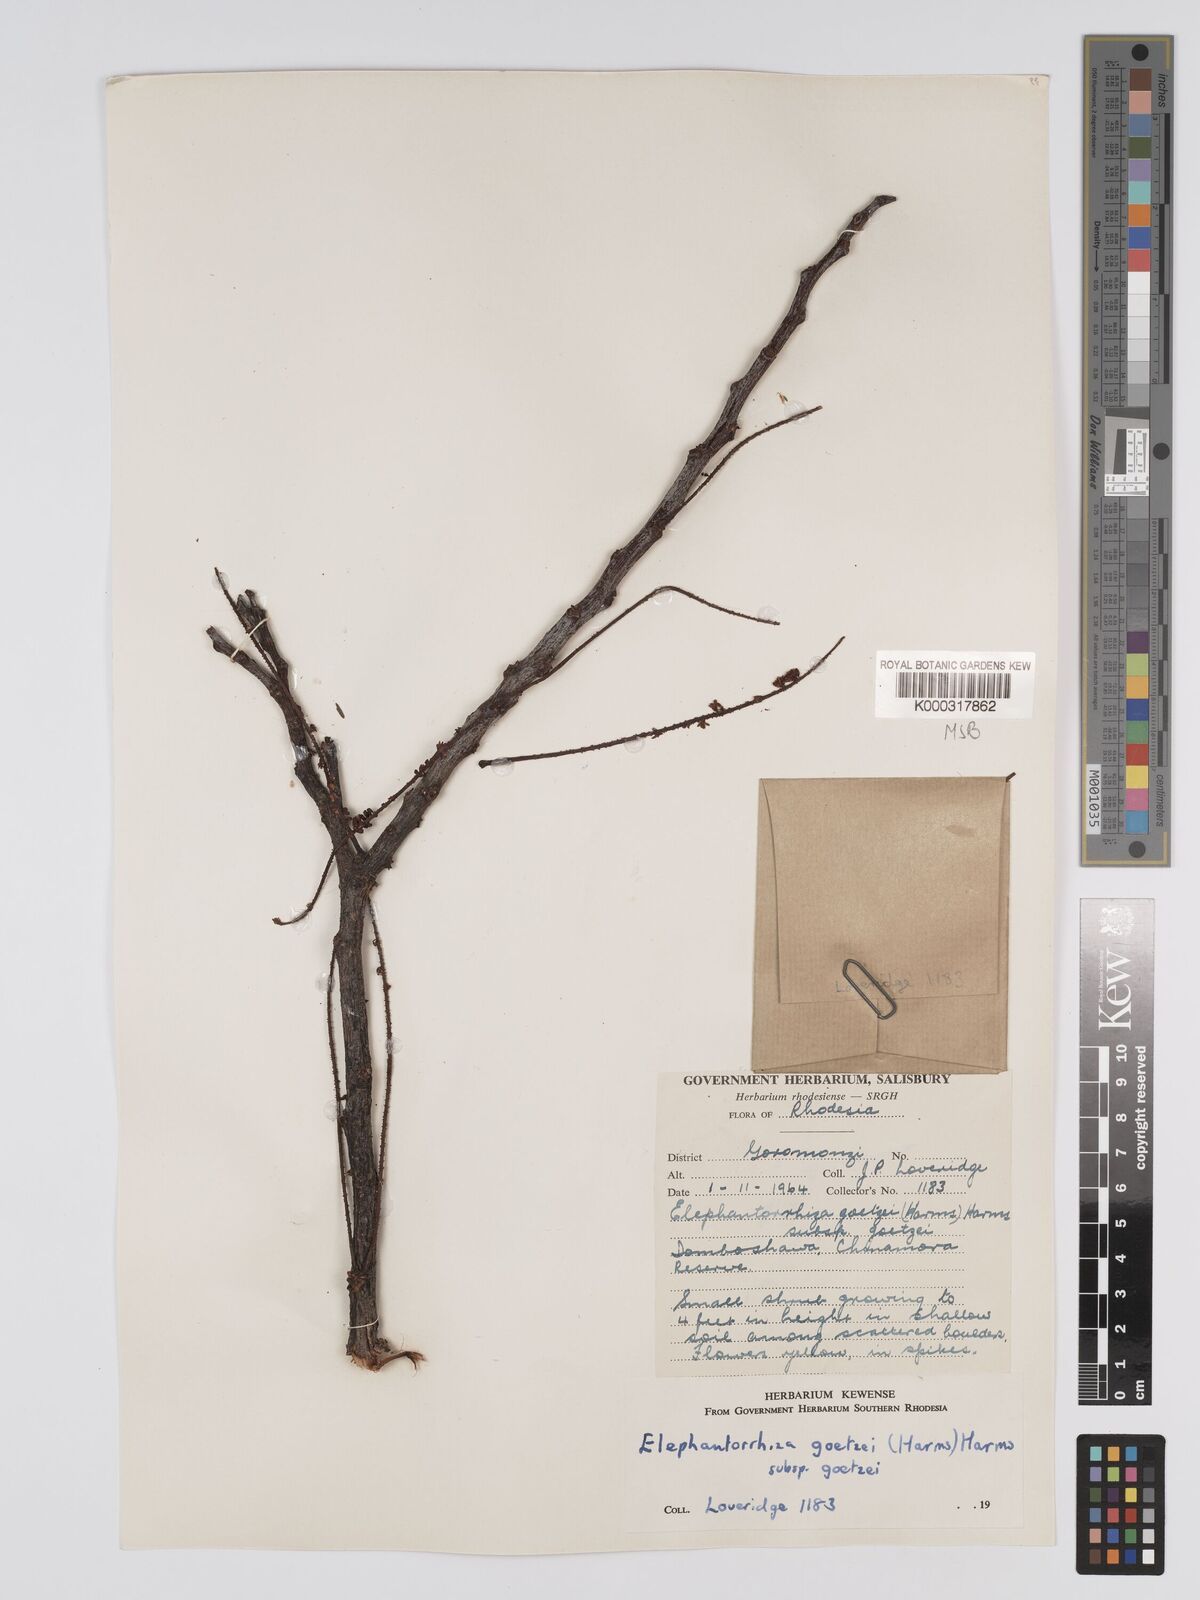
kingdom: Plantae
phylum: Tracheophyta
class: Magnoliopsida
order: Fabales
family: Fabaceae
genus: Elephantorrhiza
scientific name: Elephantorrhiza goetzei
